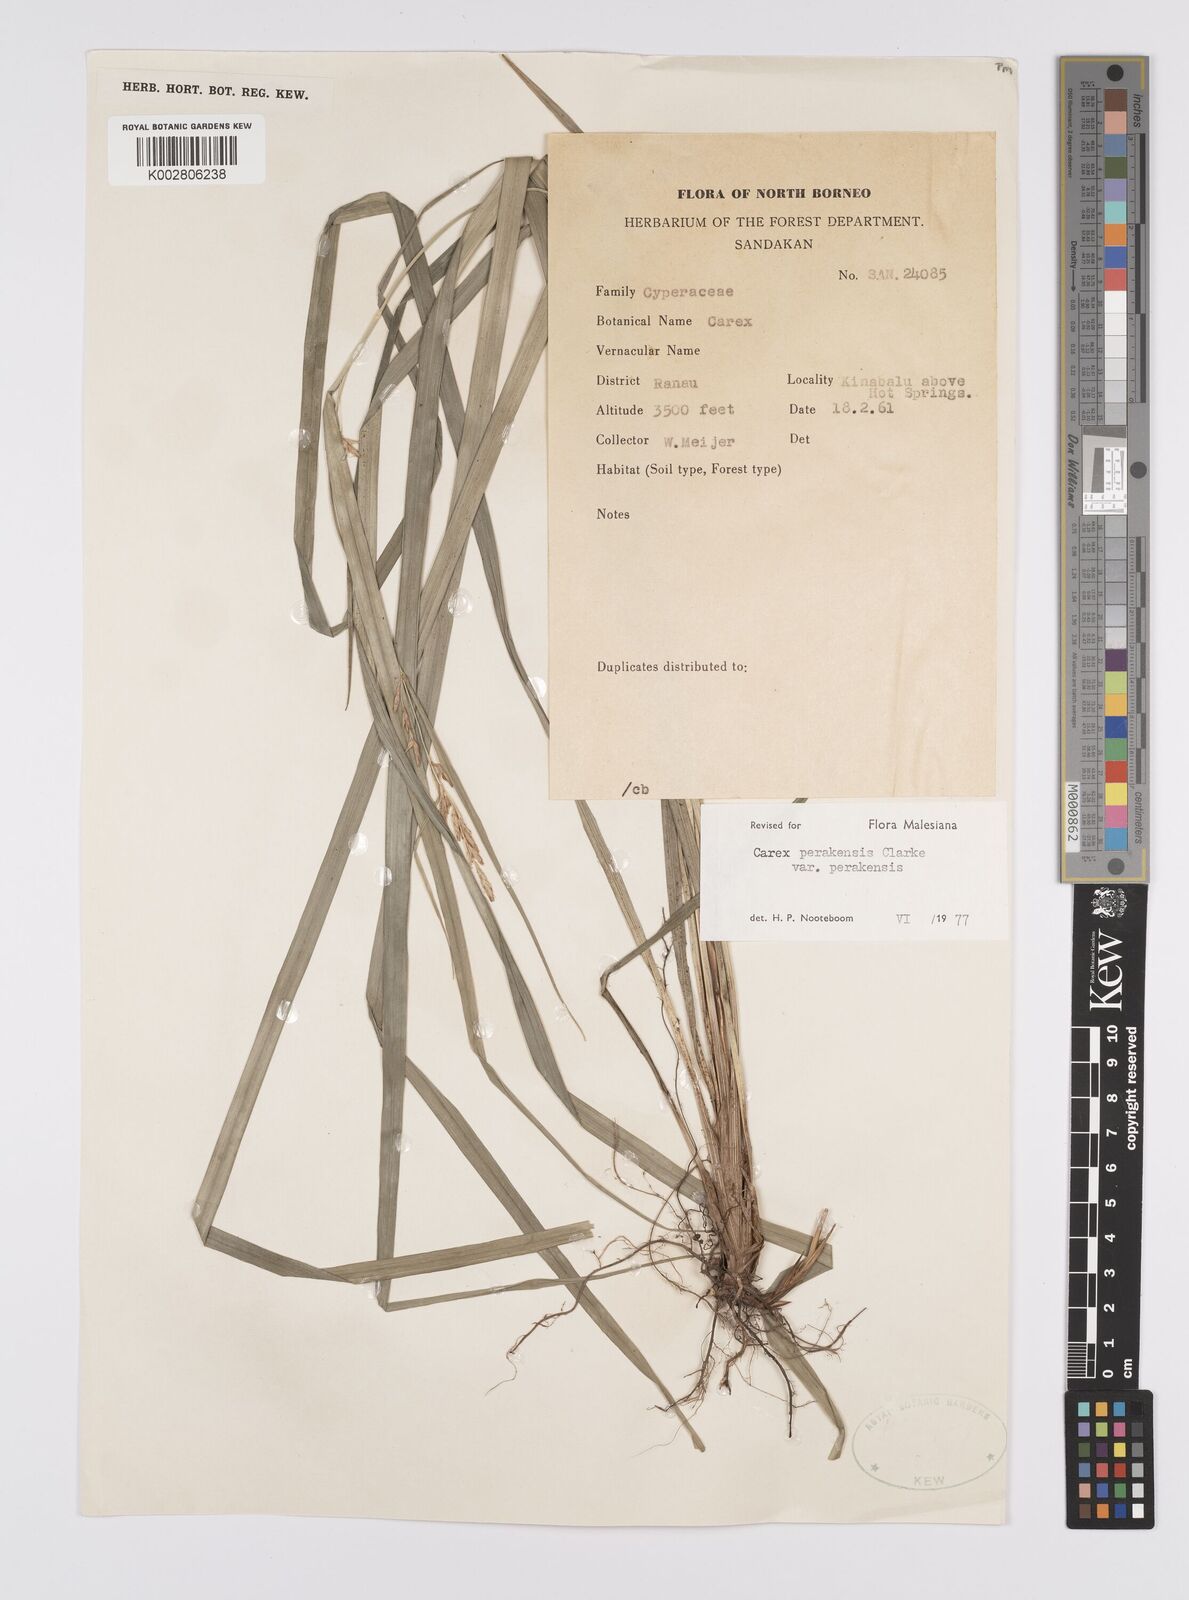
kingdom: Plantae
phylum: Tracheophyta
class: Liliopsida
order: Poales
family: Cyperaceae
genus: Carex
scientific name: Carex perakensis
